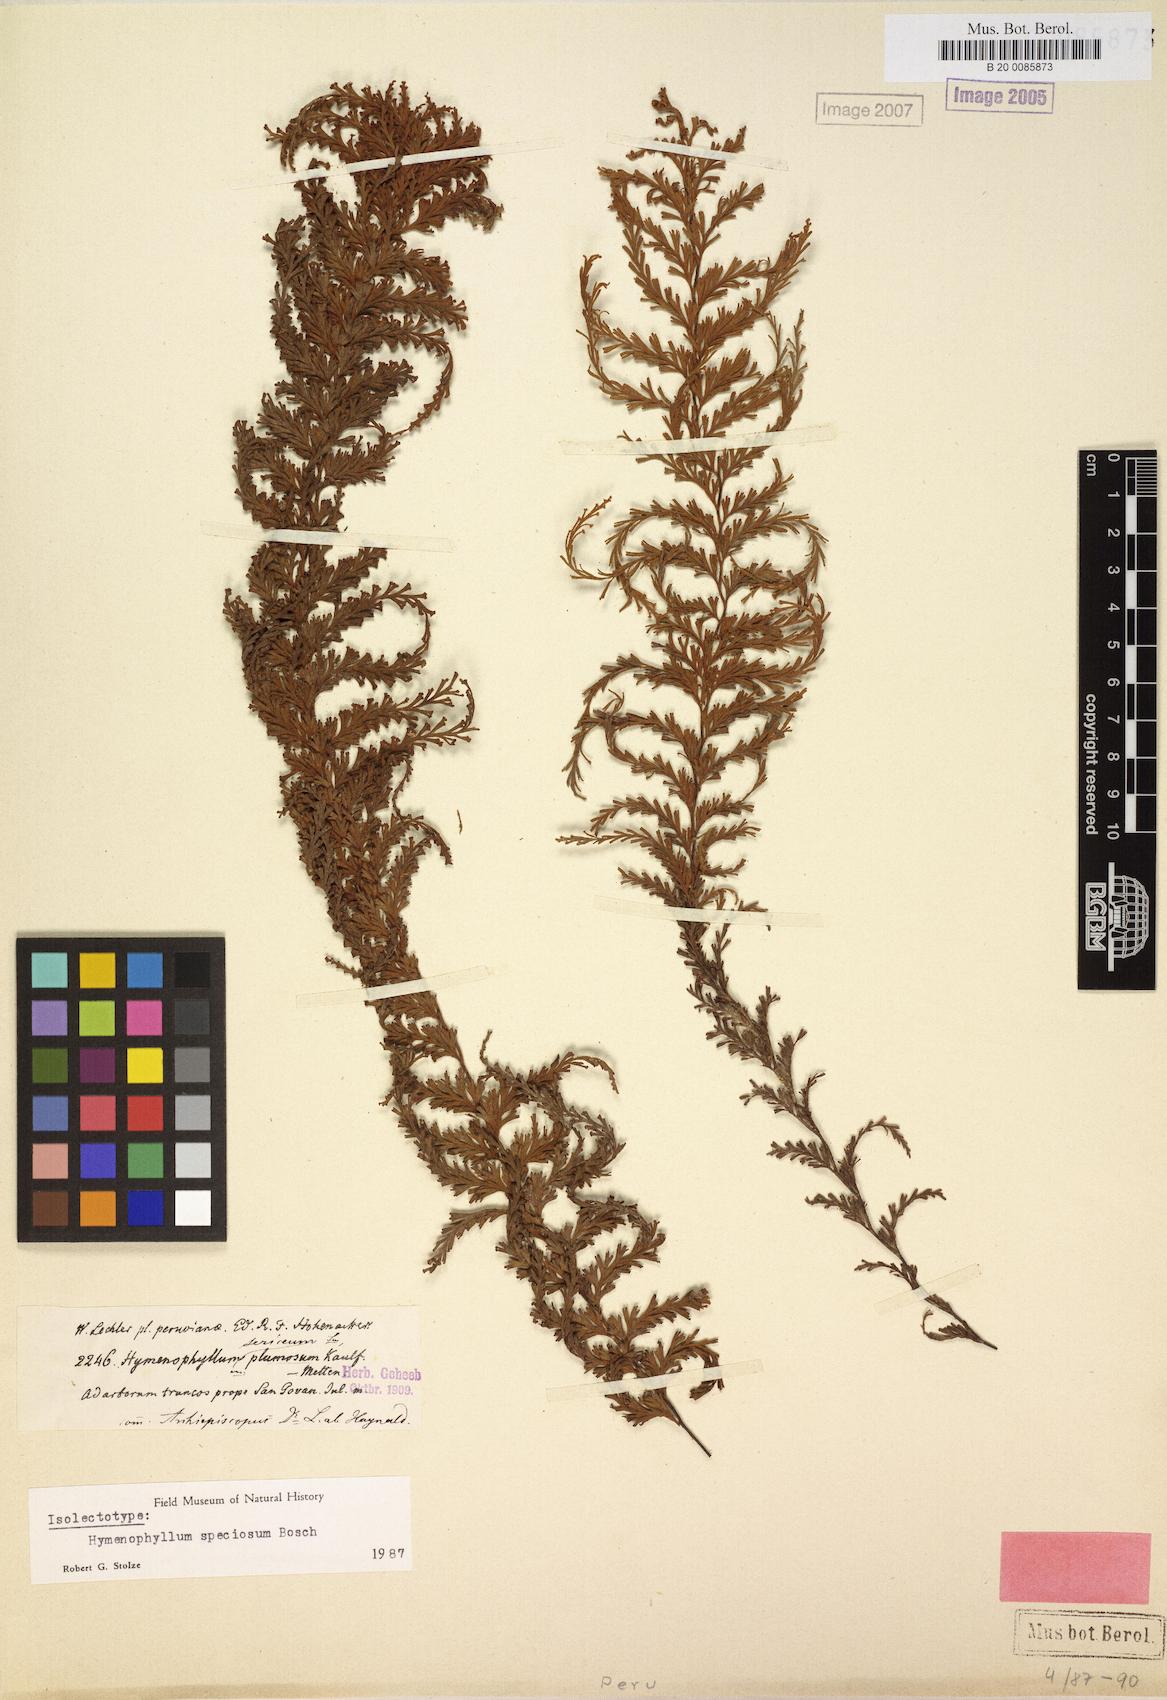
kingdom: Plantae
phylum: Tracheophyta
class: Polypodiopsida
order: Hymenophyllales
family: Hymenophyllaceae
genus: Hymenophyllum
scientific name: Hymenophyllum sericeum
